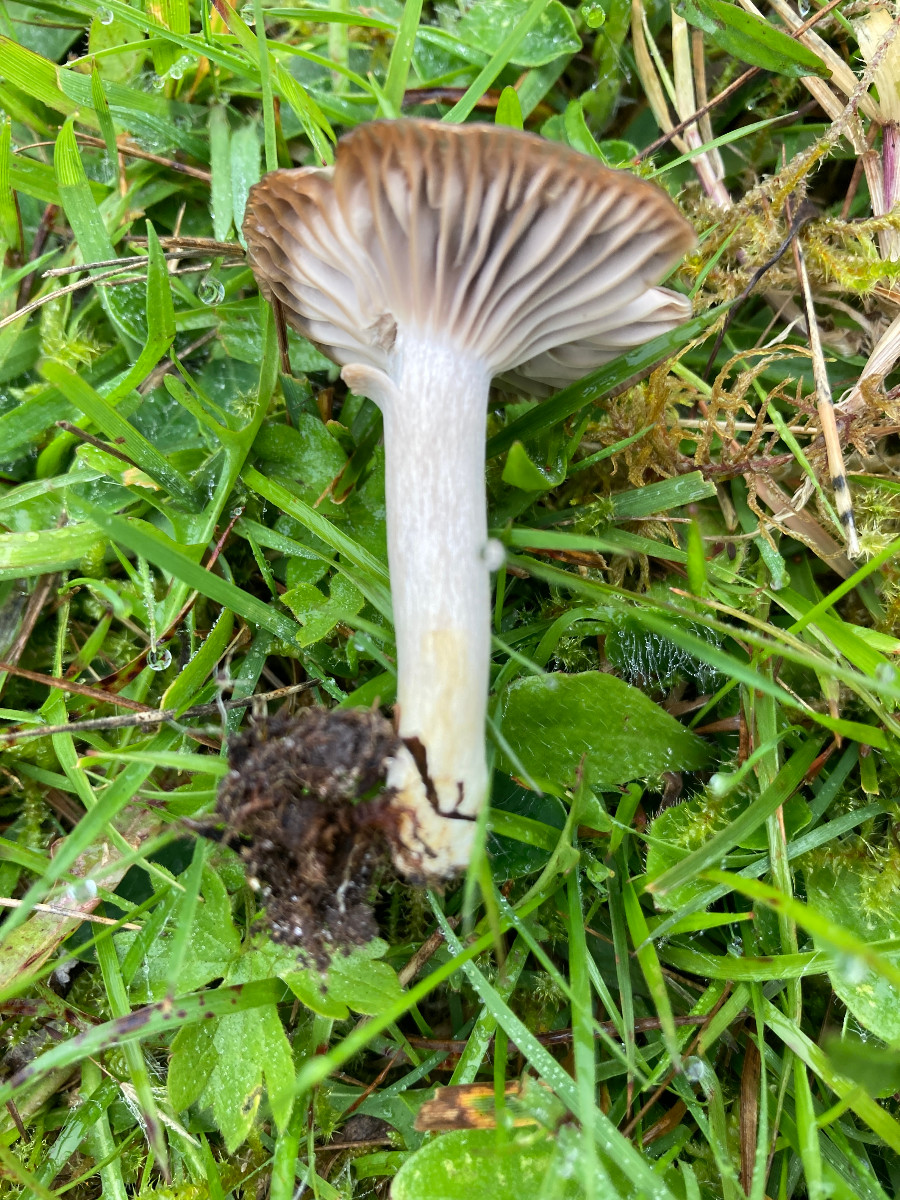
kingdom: Fungi
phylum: Basidiomycota
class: Agaricomycetes
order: Agaricales
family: Hygrophoraceae
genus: Cuphophyllus
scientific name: Cuphophyllus flavipes
